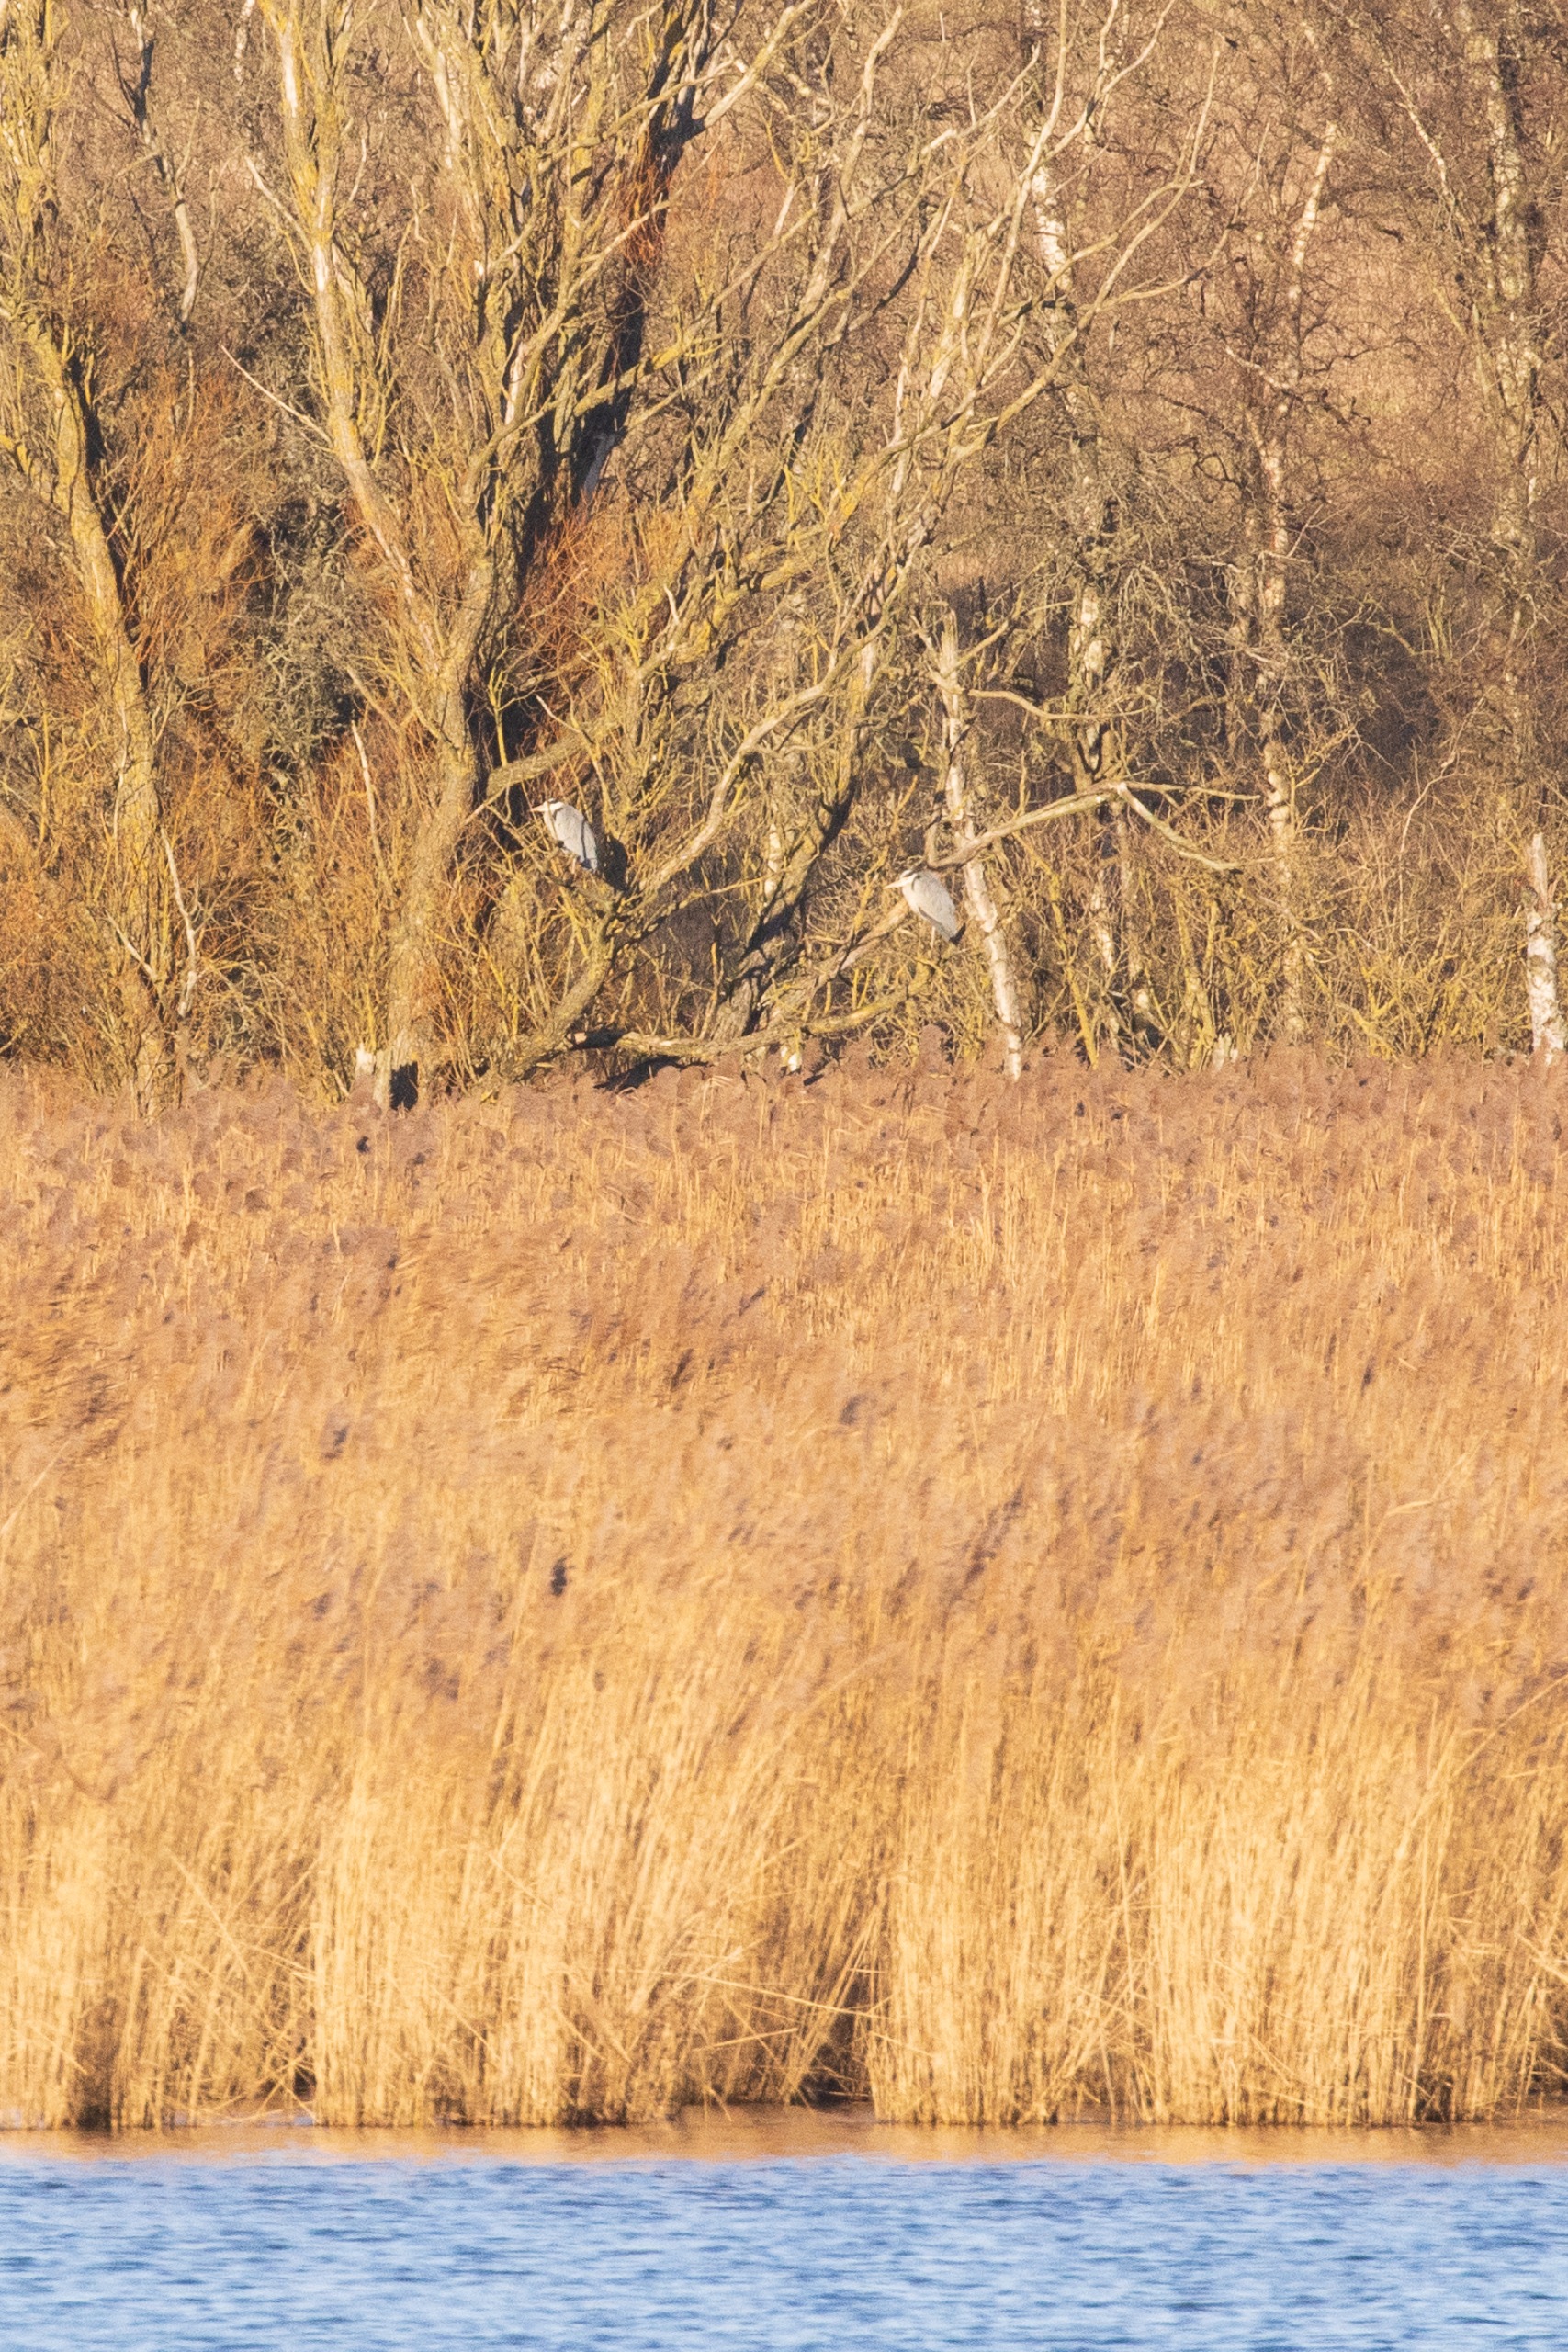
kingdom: Animalia
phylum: Chordata
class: Aves
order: Pelecaniformes
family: Ardeidae
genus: Ardea
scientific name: Ardea cinerea
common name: Fiskehejre
